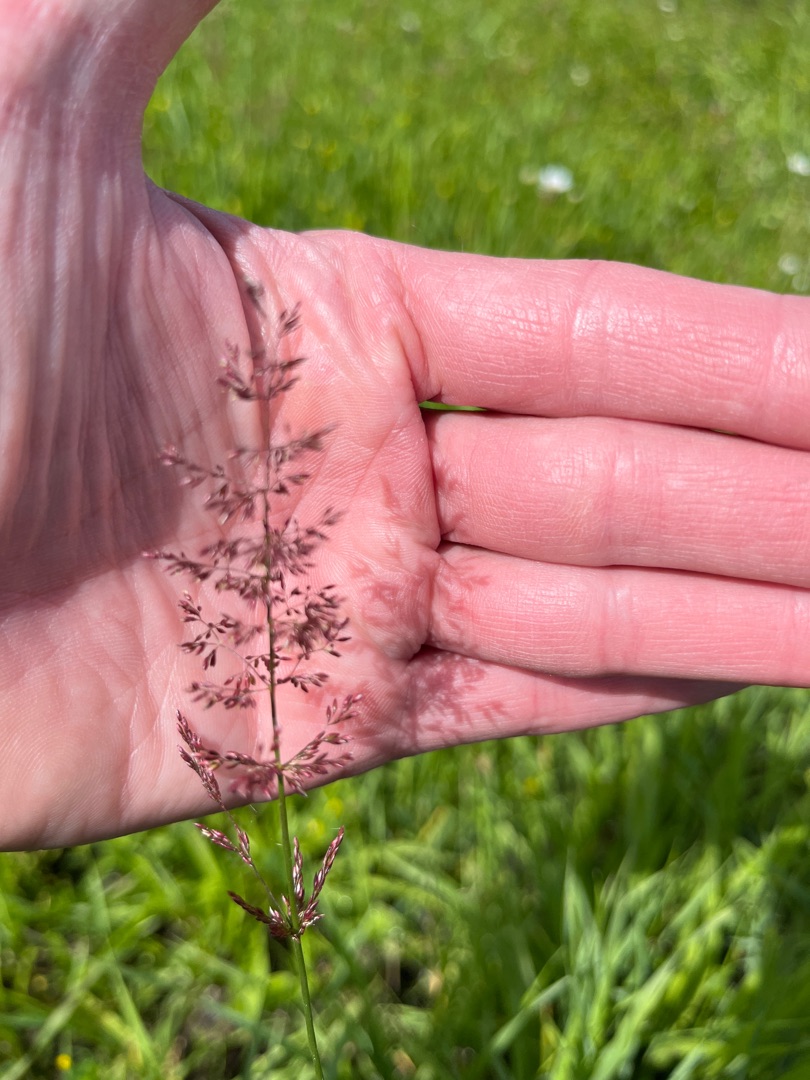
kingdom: Plantae
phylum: Tracheophyta
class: Liliopsida
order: Poales
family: Poaceae
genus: Agrostis
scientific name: Agrostis capillaris
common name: Almindelig hvene
